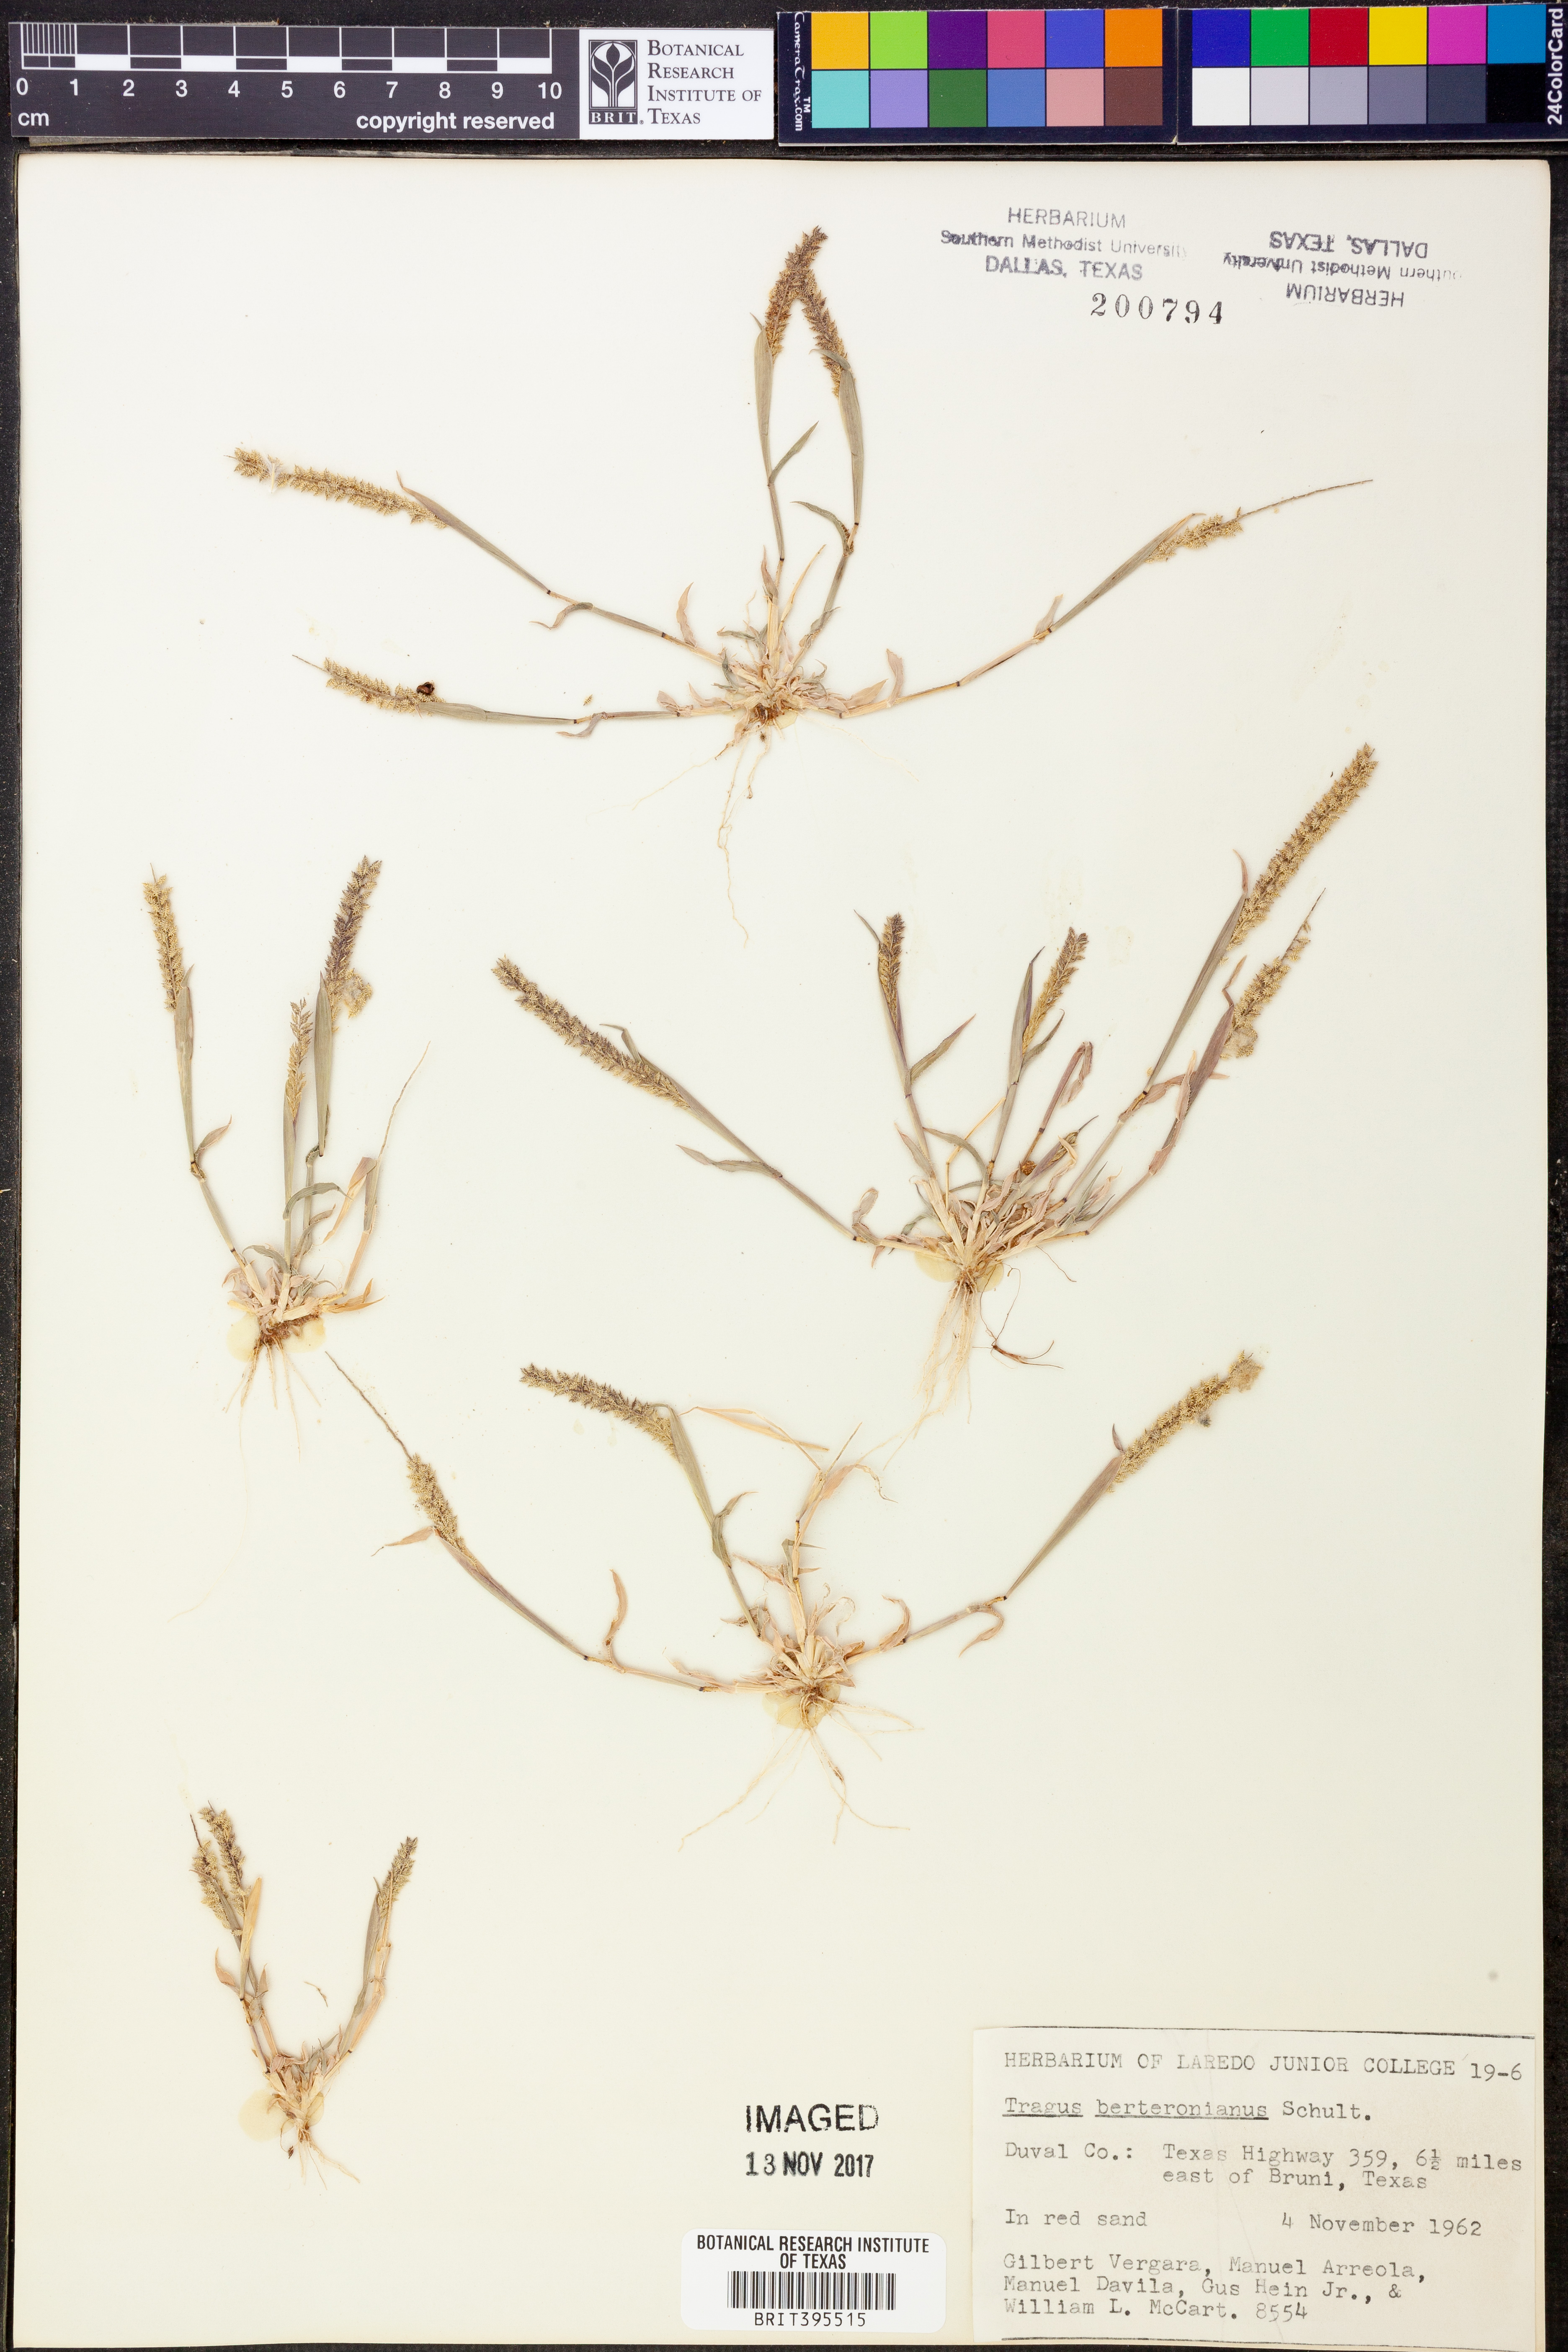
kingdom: Plantae
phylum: Tracheophyta
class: Liliopsida
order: Poales
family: Poaceae
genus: Tragus
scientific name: Tragus berteronianus
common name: African bur-grass
